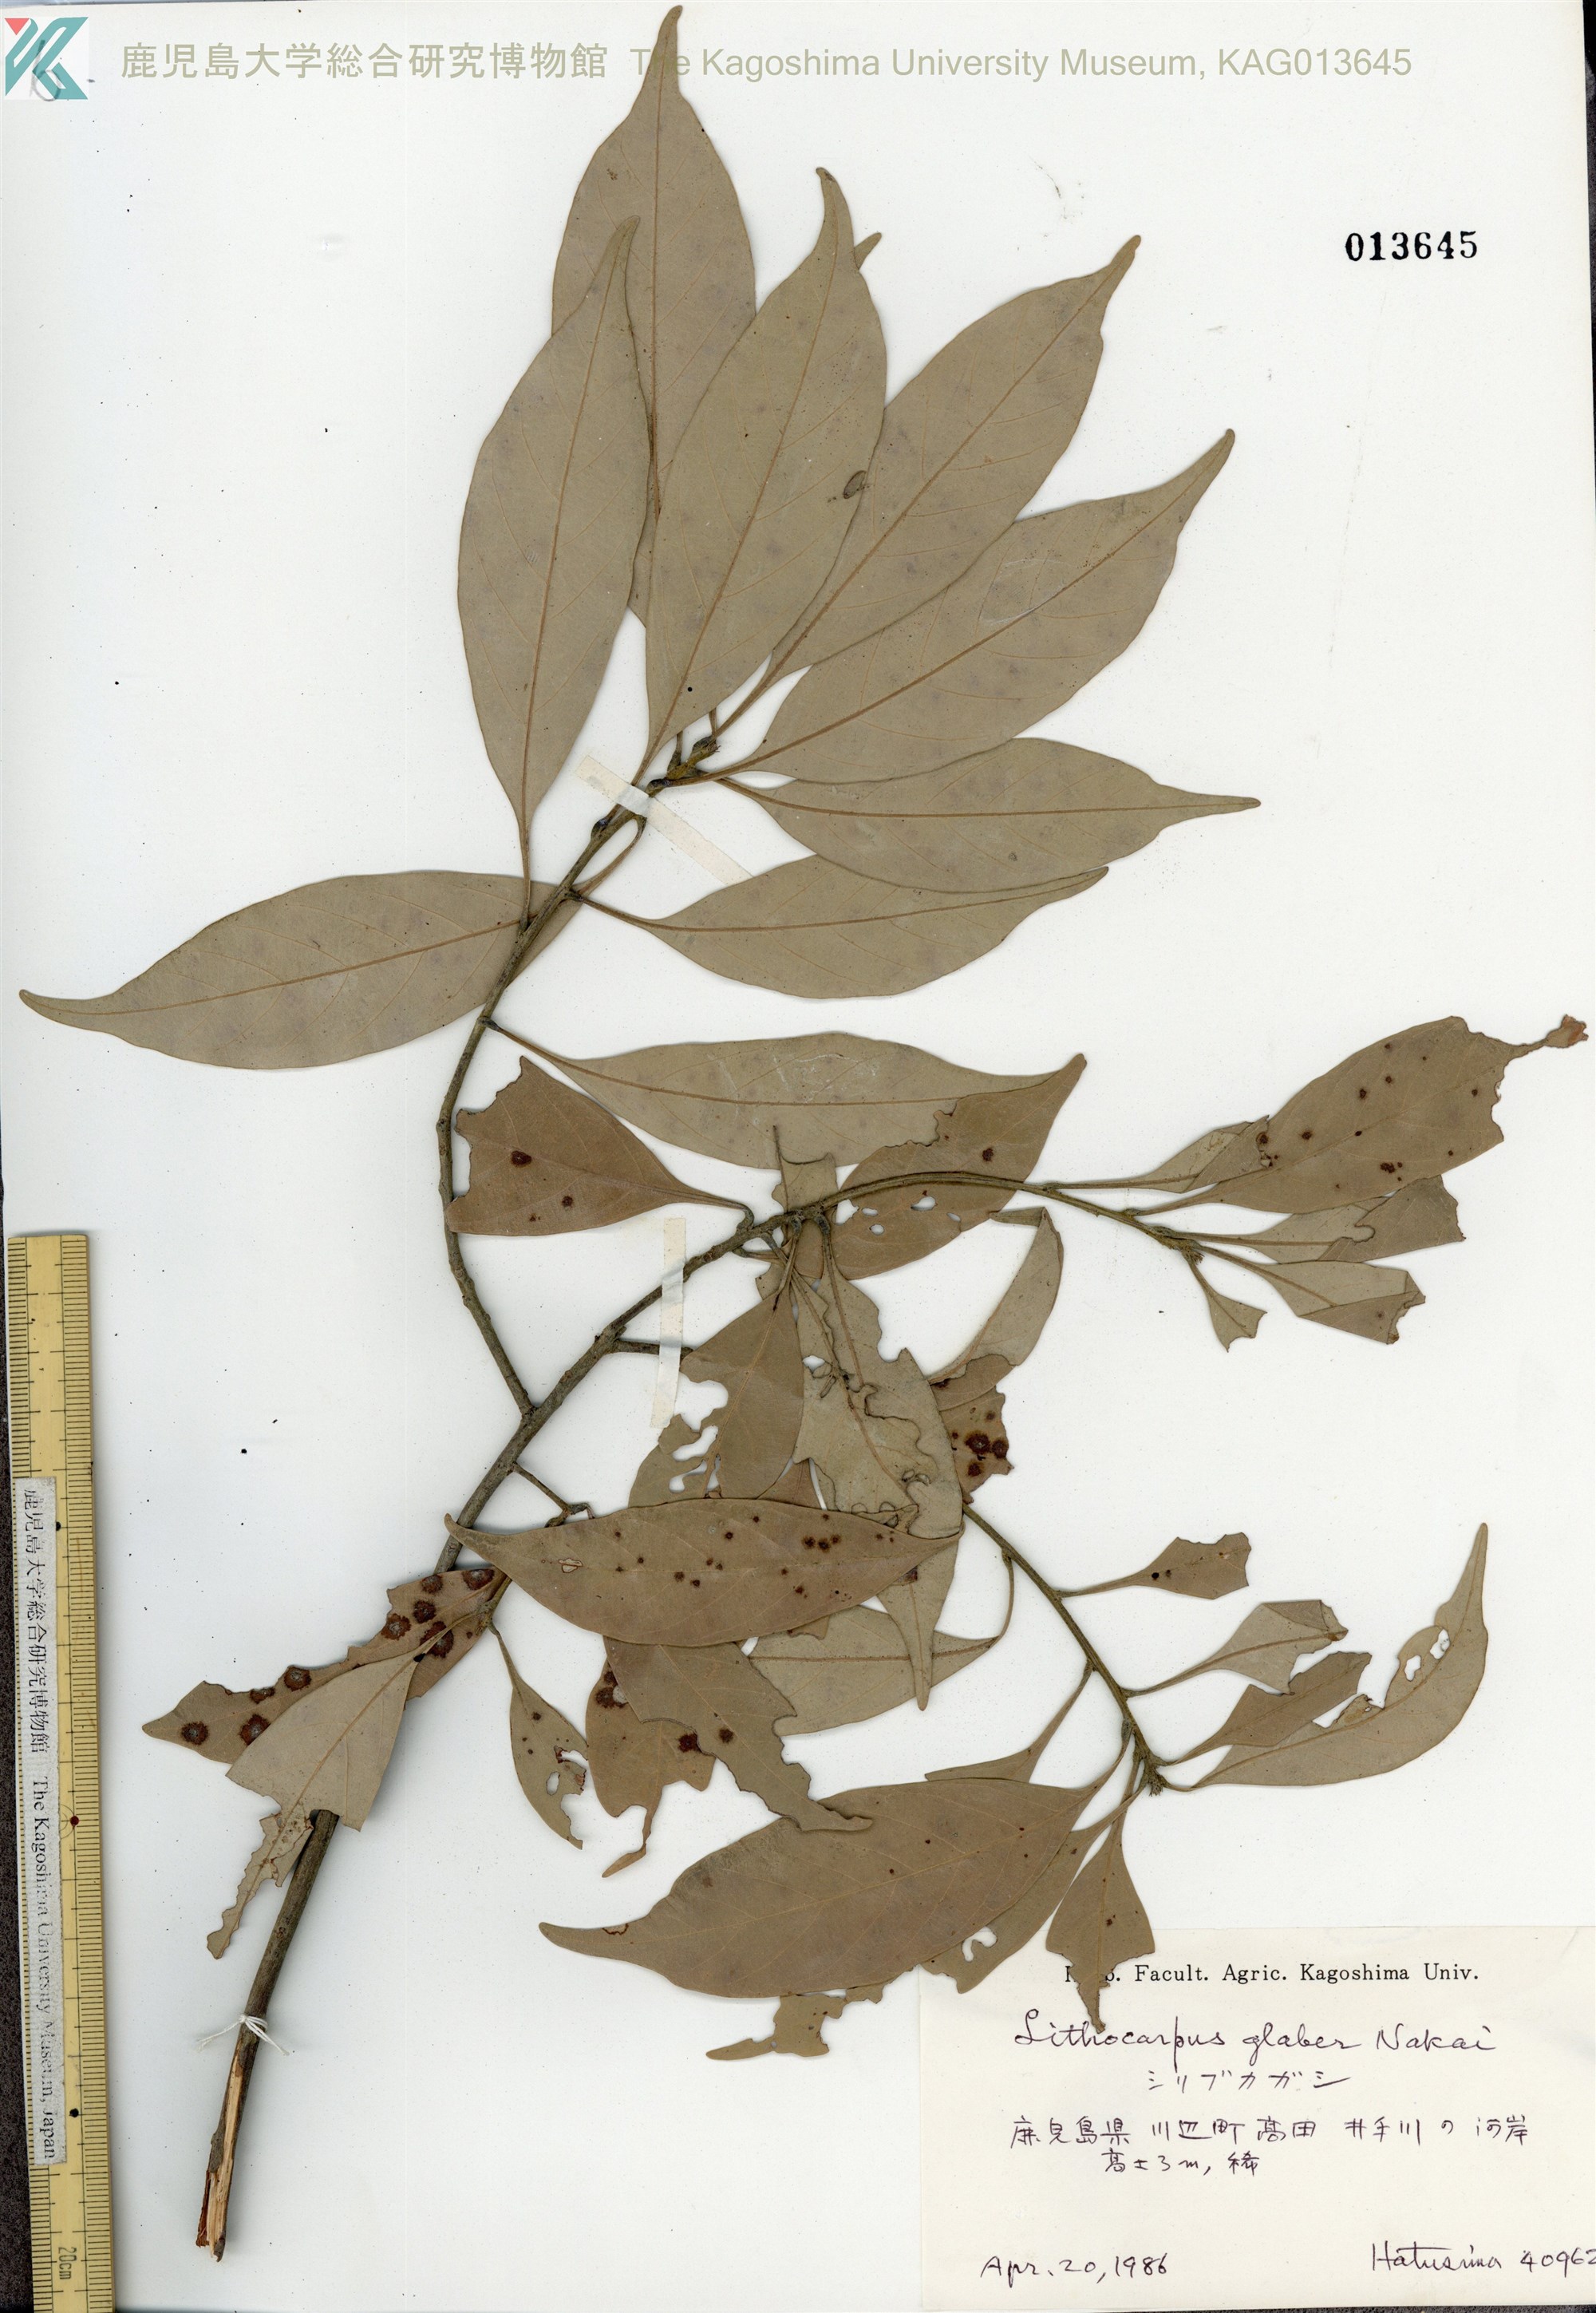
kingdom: Plantae
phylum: Tracheophyta
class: Magnoliopsida
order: Fagales
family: Fagaceae
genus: Lithocarpus
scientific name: Lithocarpus glaber
